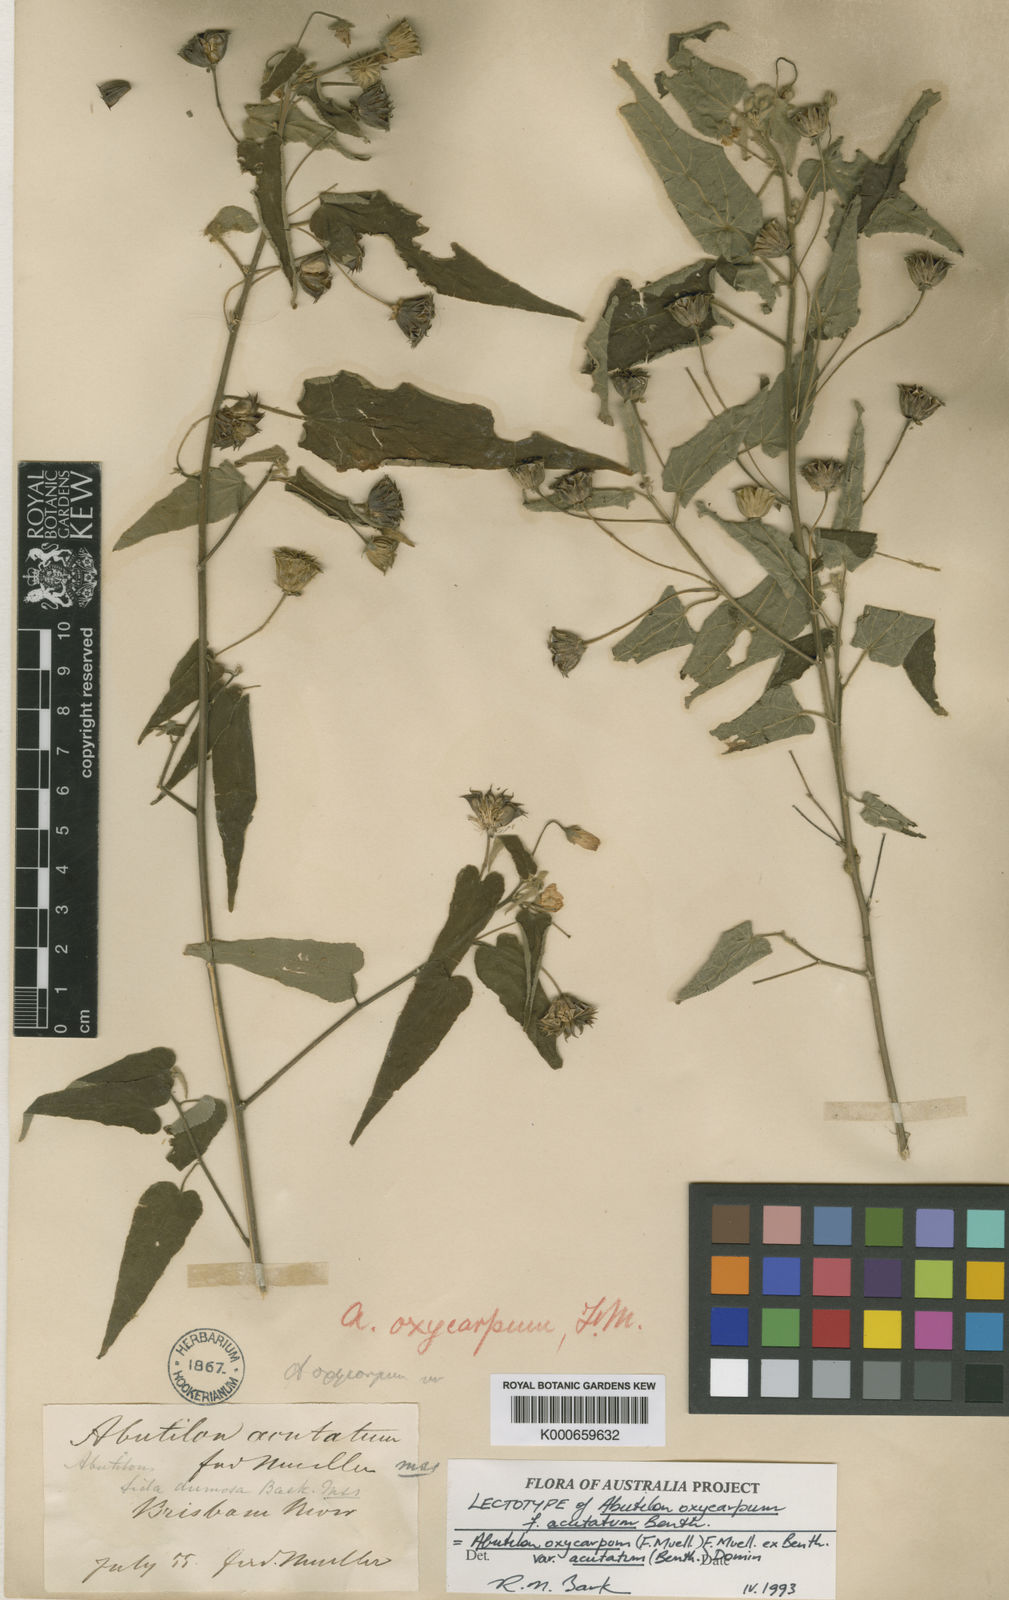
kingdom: Plantae
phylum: Tracheophyta
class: Magnoliopsida
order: Malvales
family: Malvaceae
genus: Abutilon
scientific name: Abutilon oxycarpum
